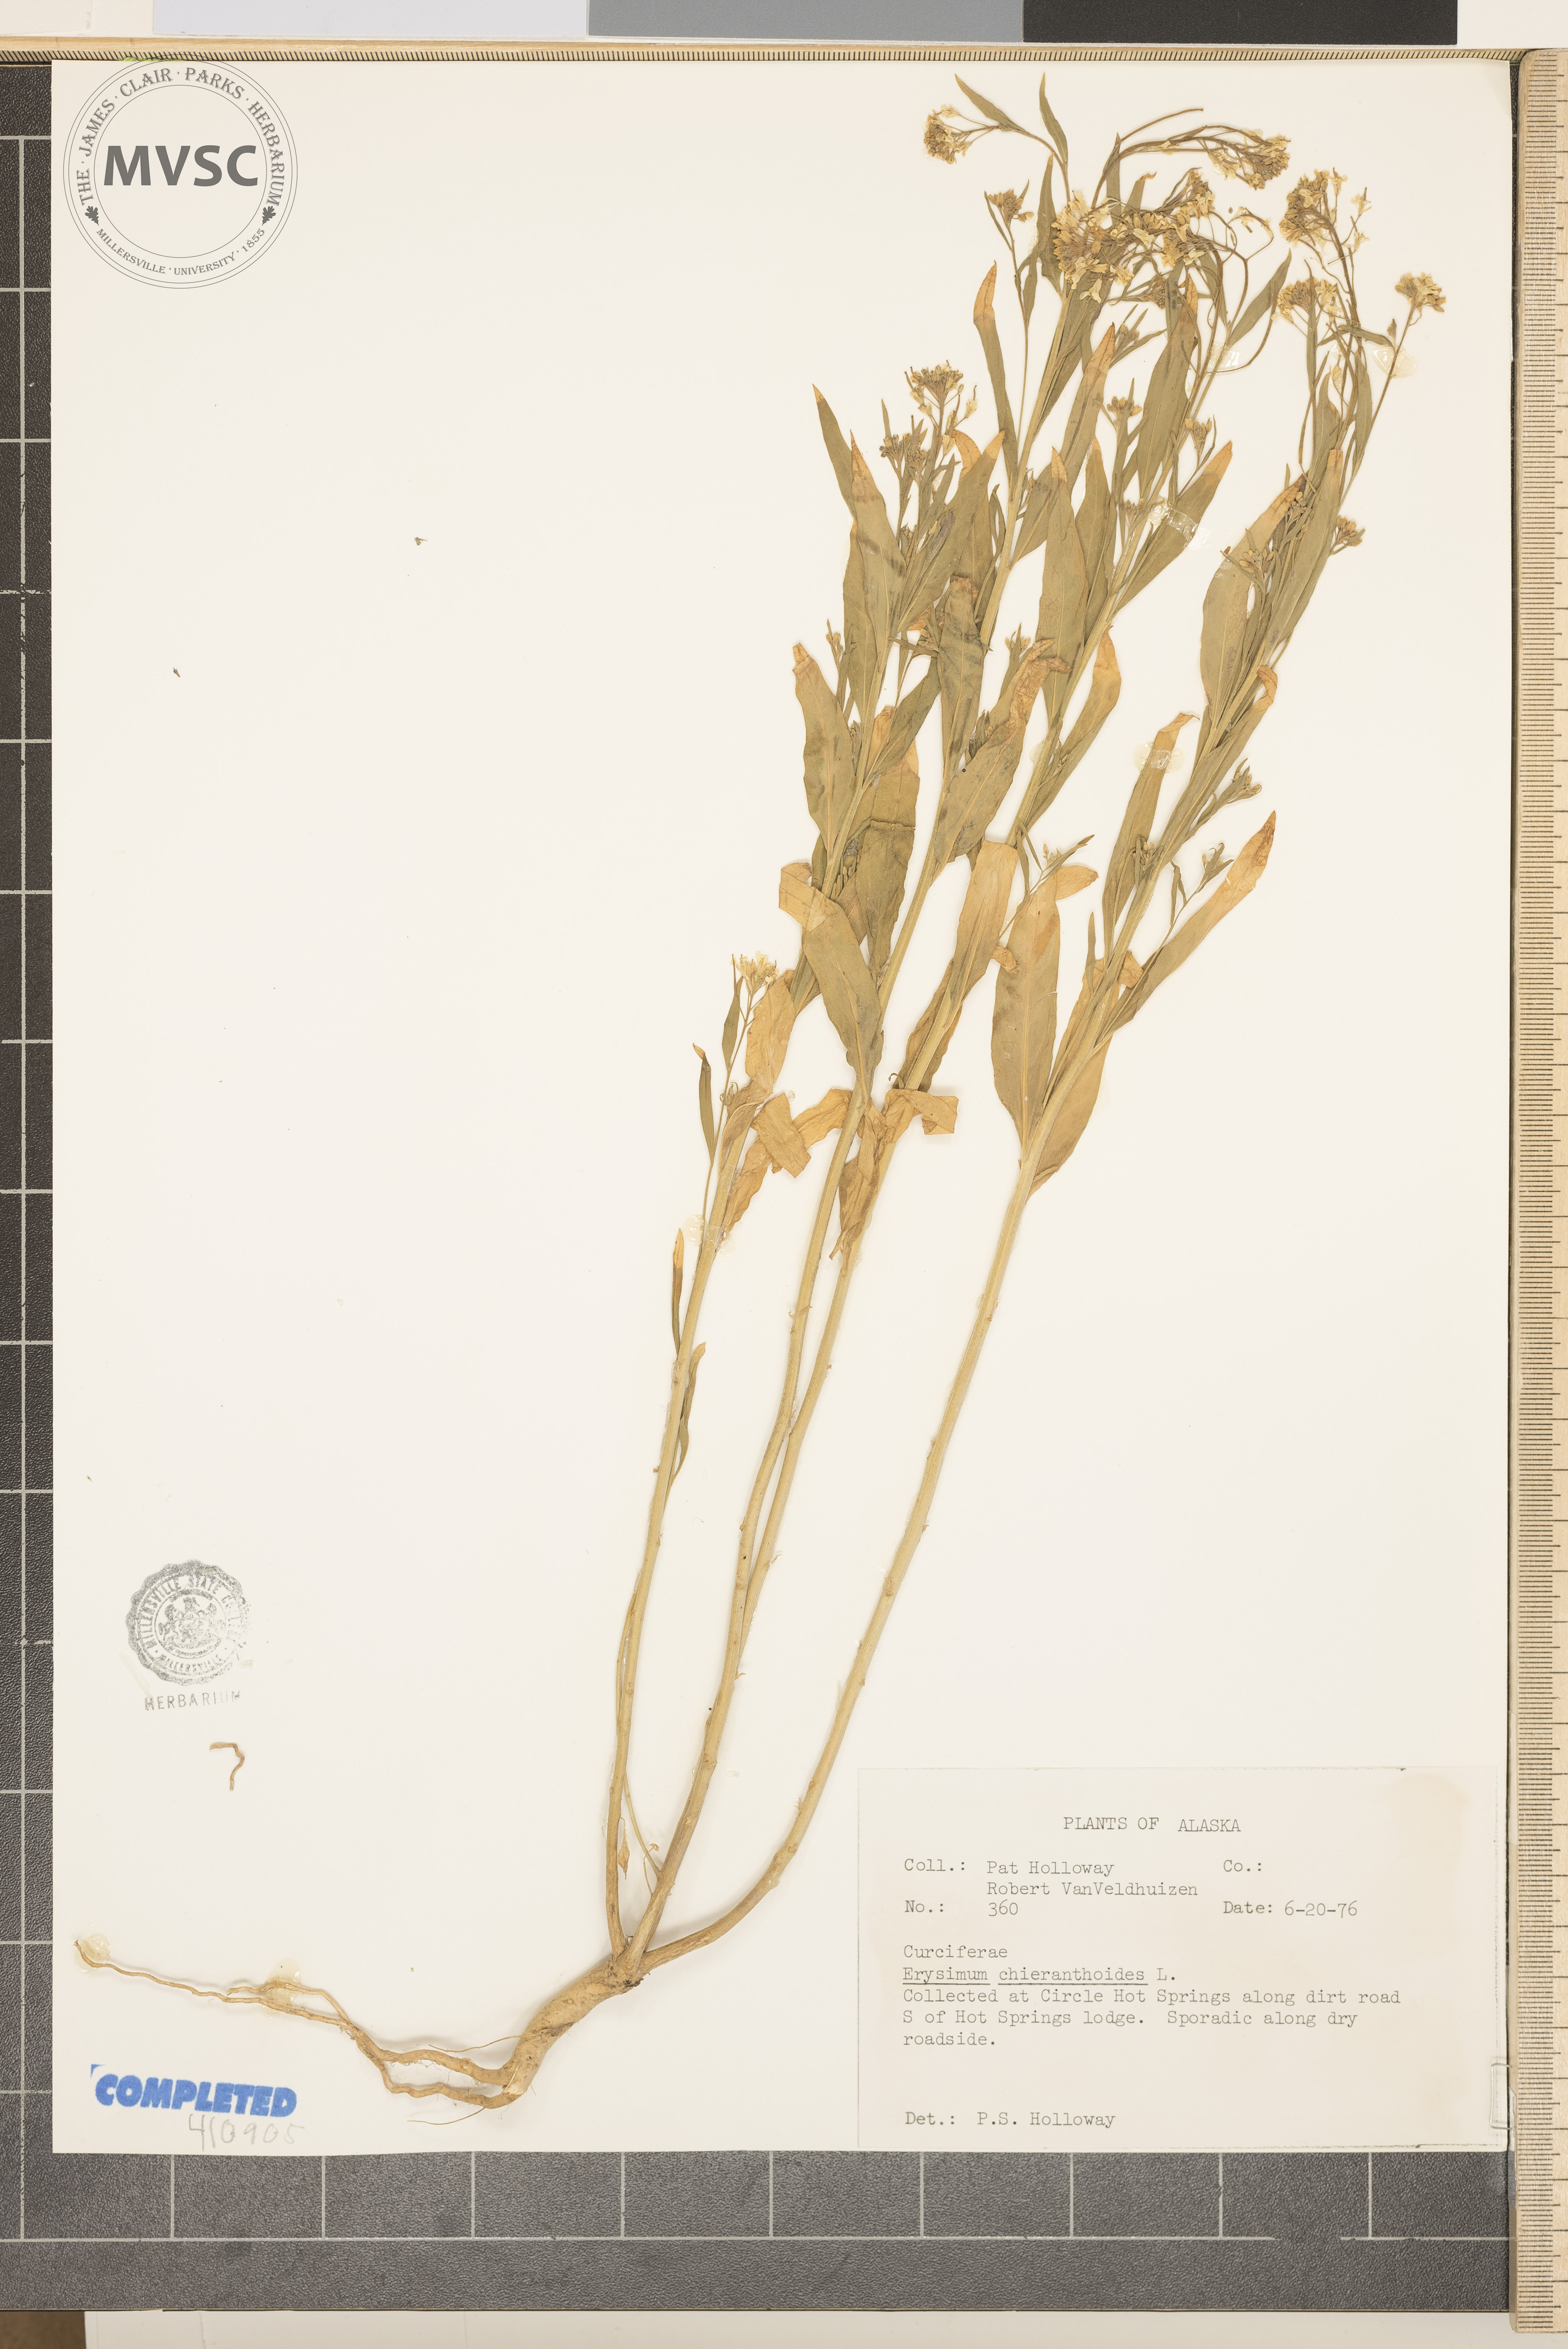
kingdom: Plantae
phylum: Tracheophyta
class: Magnoliopsida
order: Brassicales
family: Brassicaceae
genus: Erysimum
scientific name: Erysimum cheiranthoides
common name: Treacle-mustard
